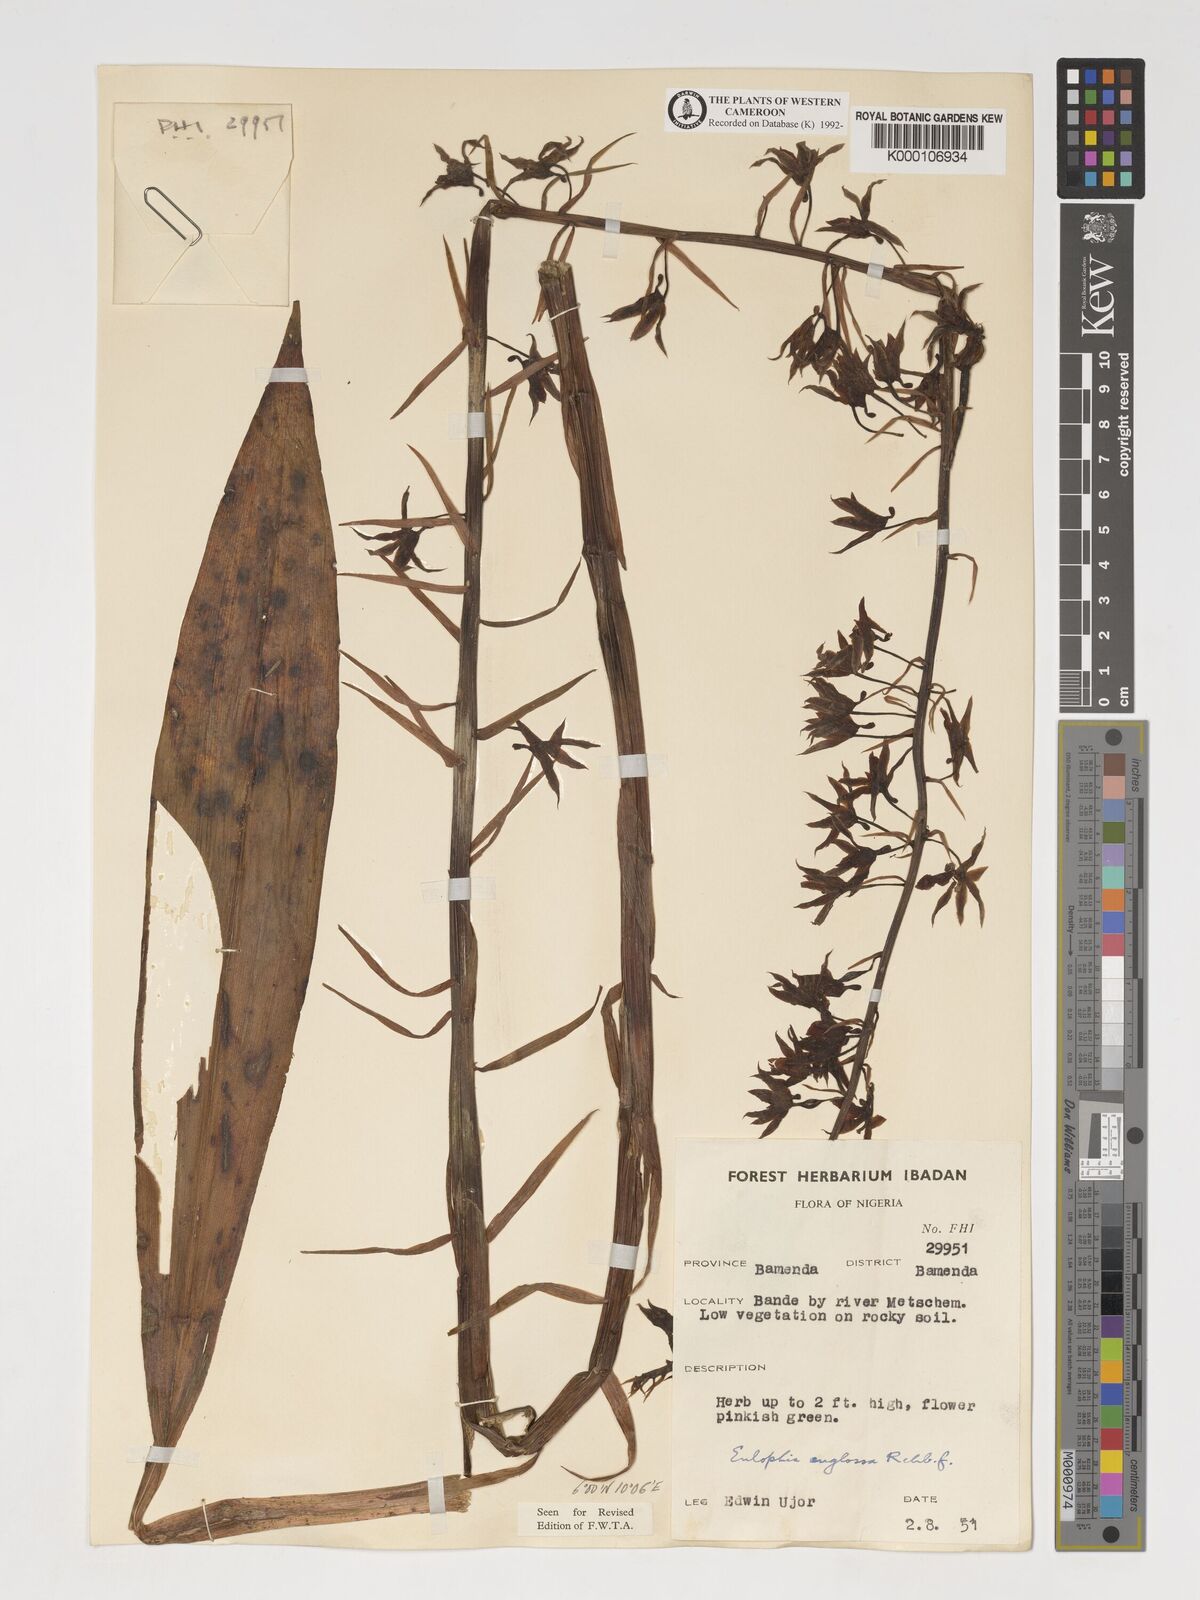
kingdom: Plantae
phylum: Tracheophyta
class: Liliopsida
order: Asparagales
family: Orchidaceae
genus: Eulophia
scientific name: Eulophia
